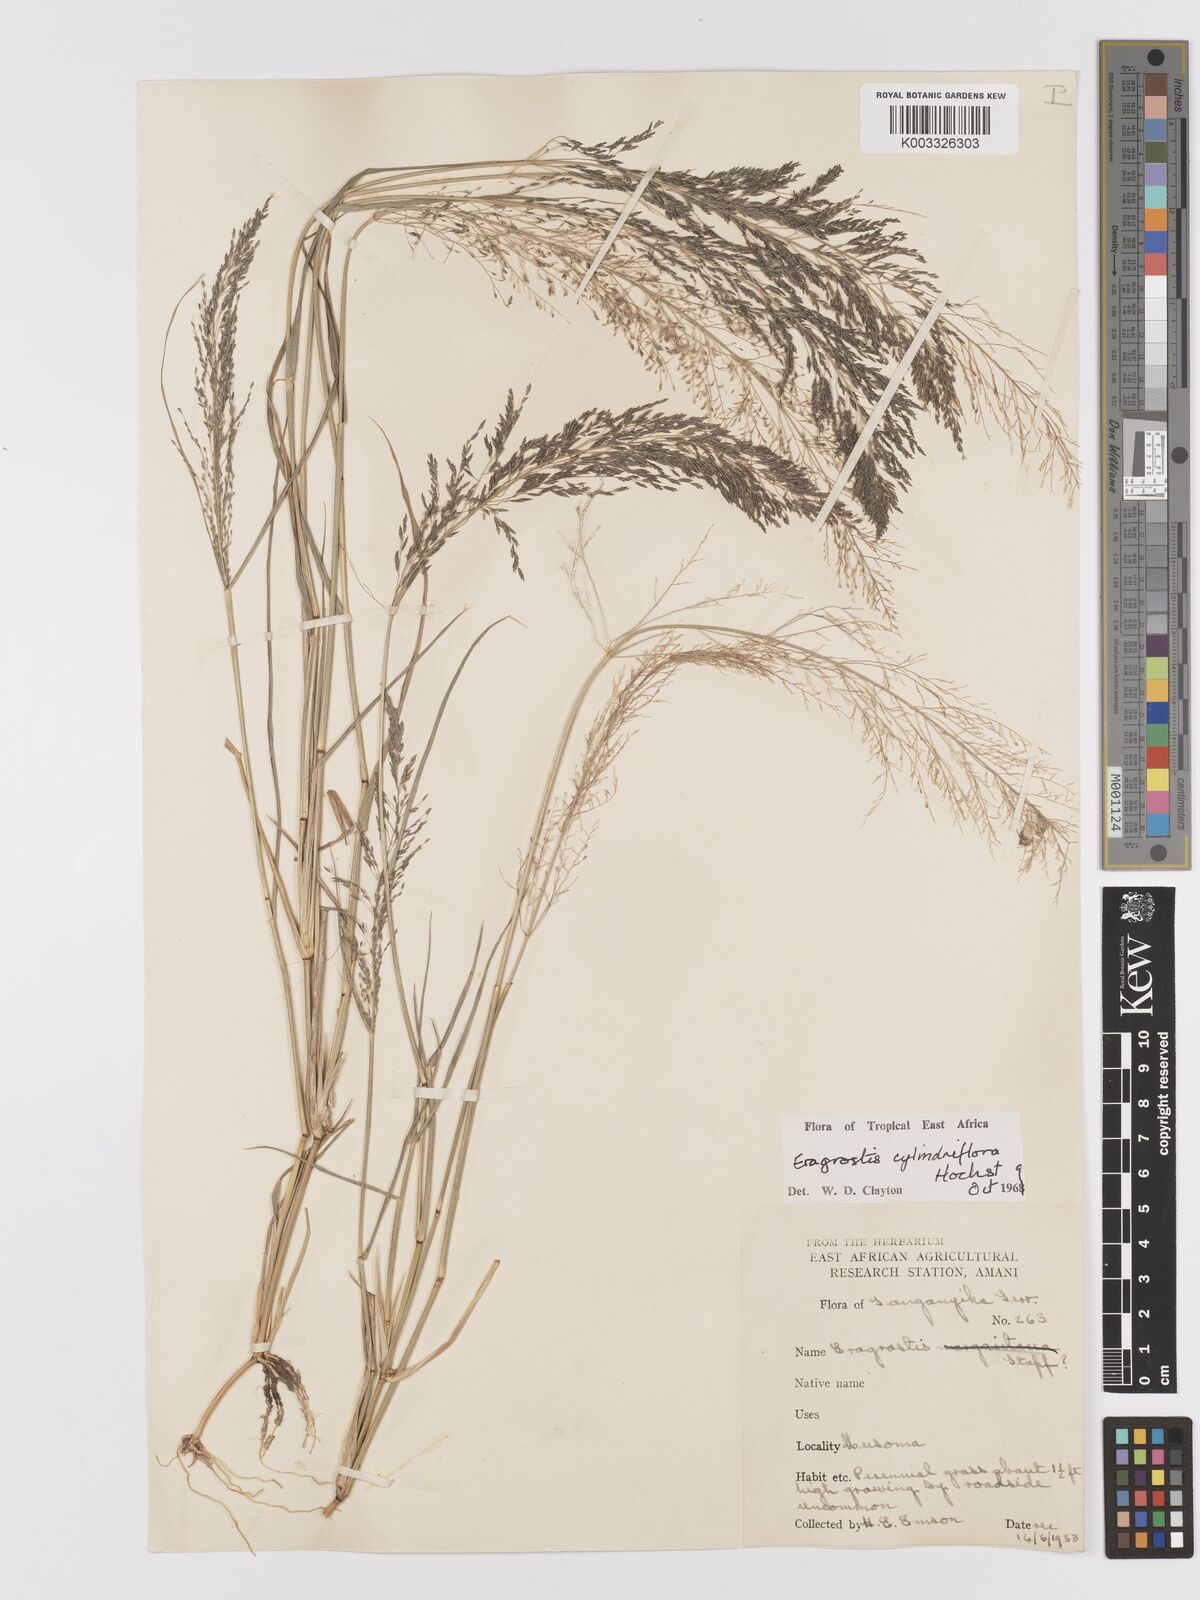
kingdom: Plantae
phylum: Tracheophyta
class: Liliopsida
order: Poales
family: Poaceae
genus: Eragrostis
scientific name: Eragrostis cylindriflora
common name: Cylinderflower lovegrass
